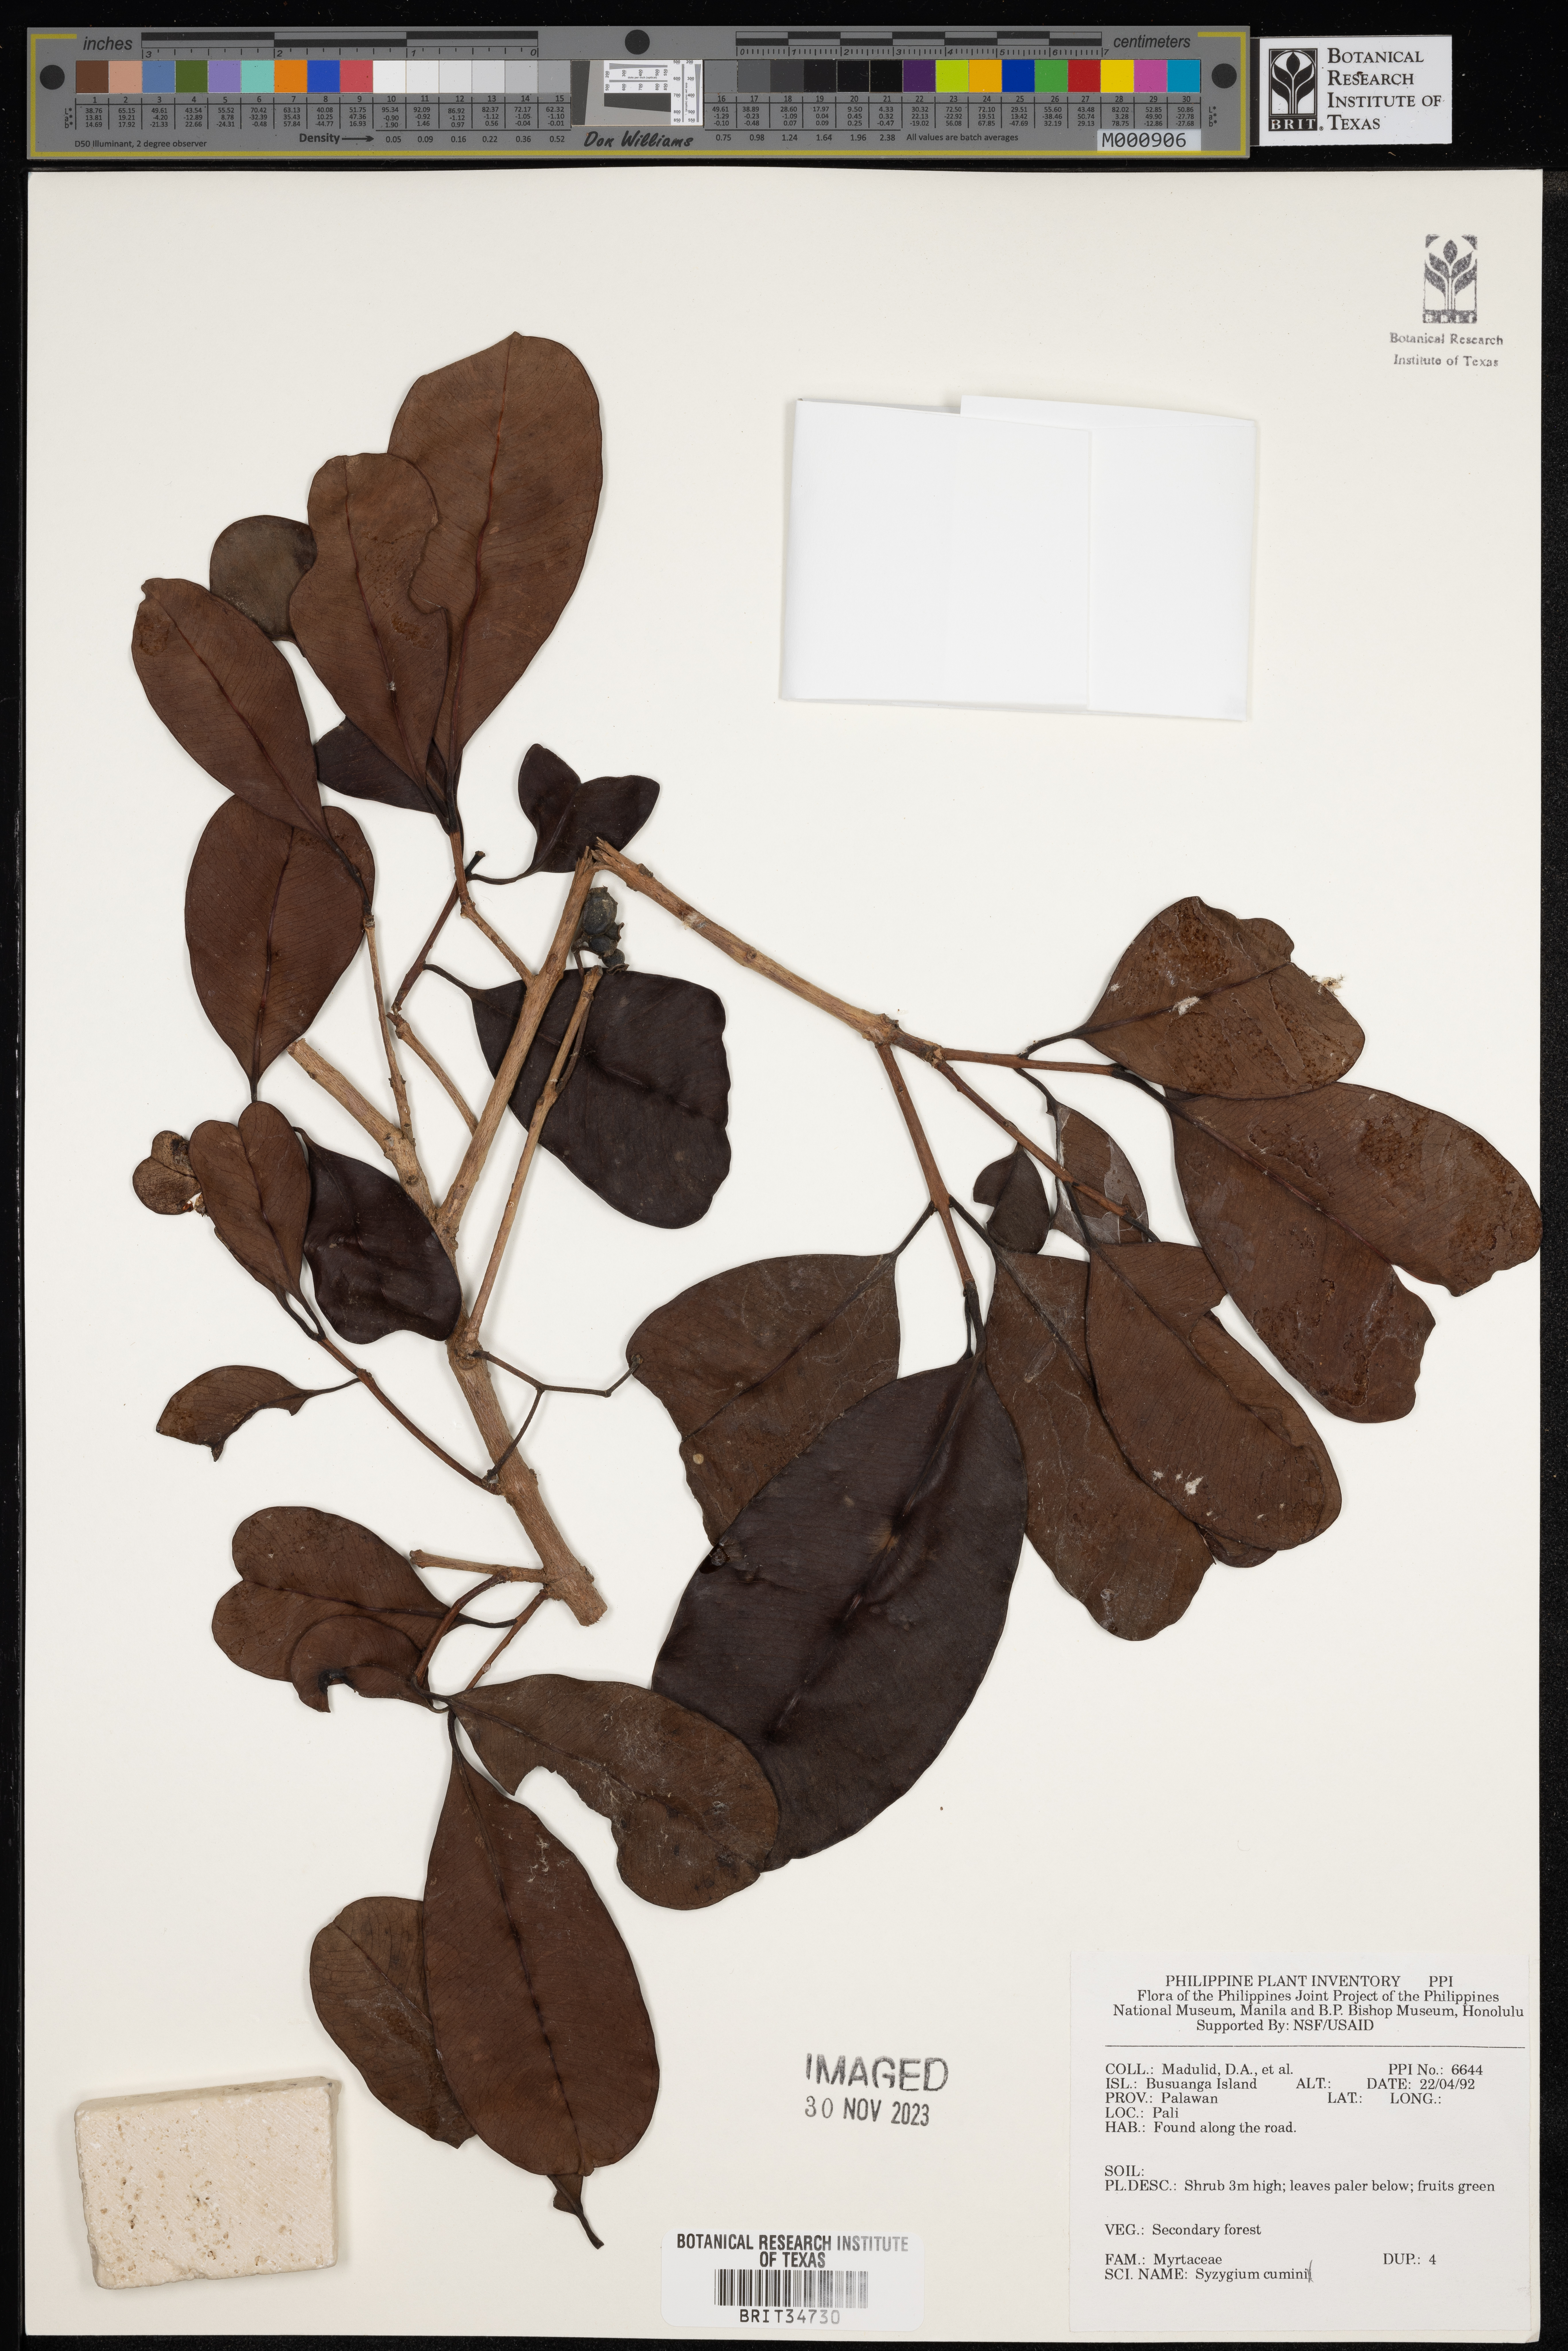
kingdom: Plantae
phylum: Tracheophyta
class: Magnoliopsida
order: Myrtales
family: Myrtaceae
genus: Syzygium
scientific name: Syzygium cumini
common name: Java plum
